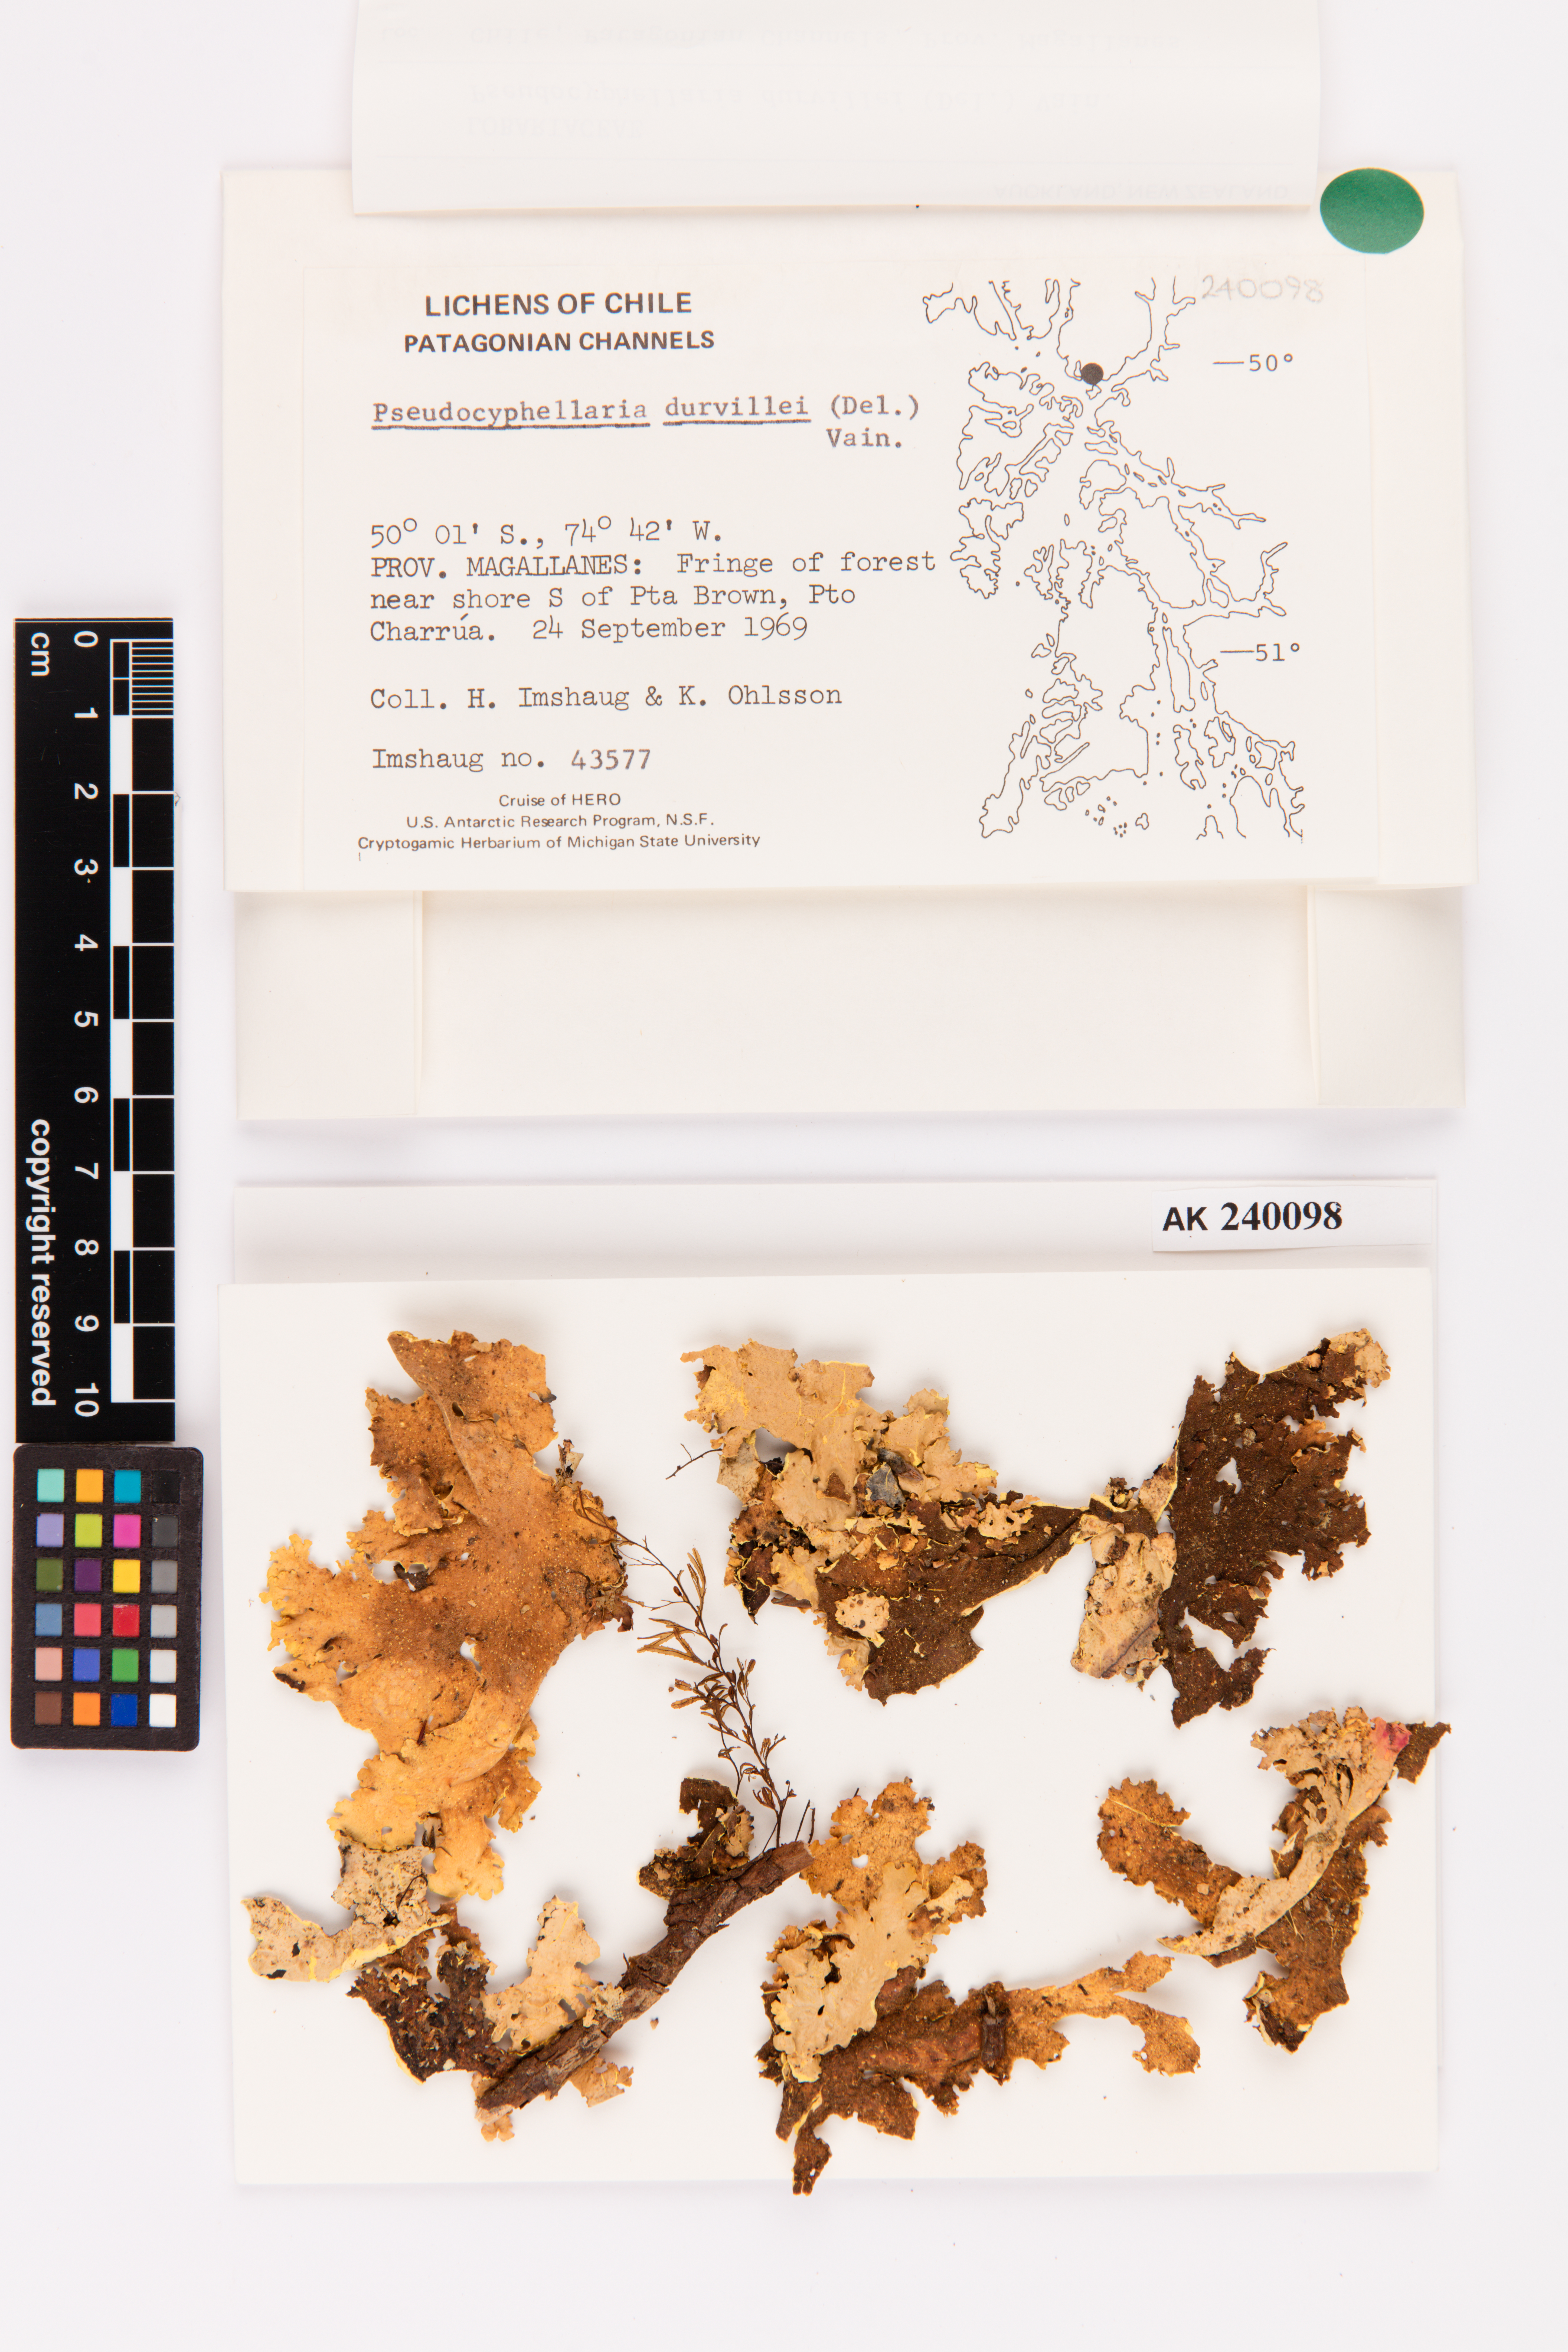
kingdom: Fungi
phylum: Ascomycota
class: Lecanoromycetes
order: Peltigerales
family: Lobariaceae
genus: Yarrumia
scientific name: Yarrumia coronata
